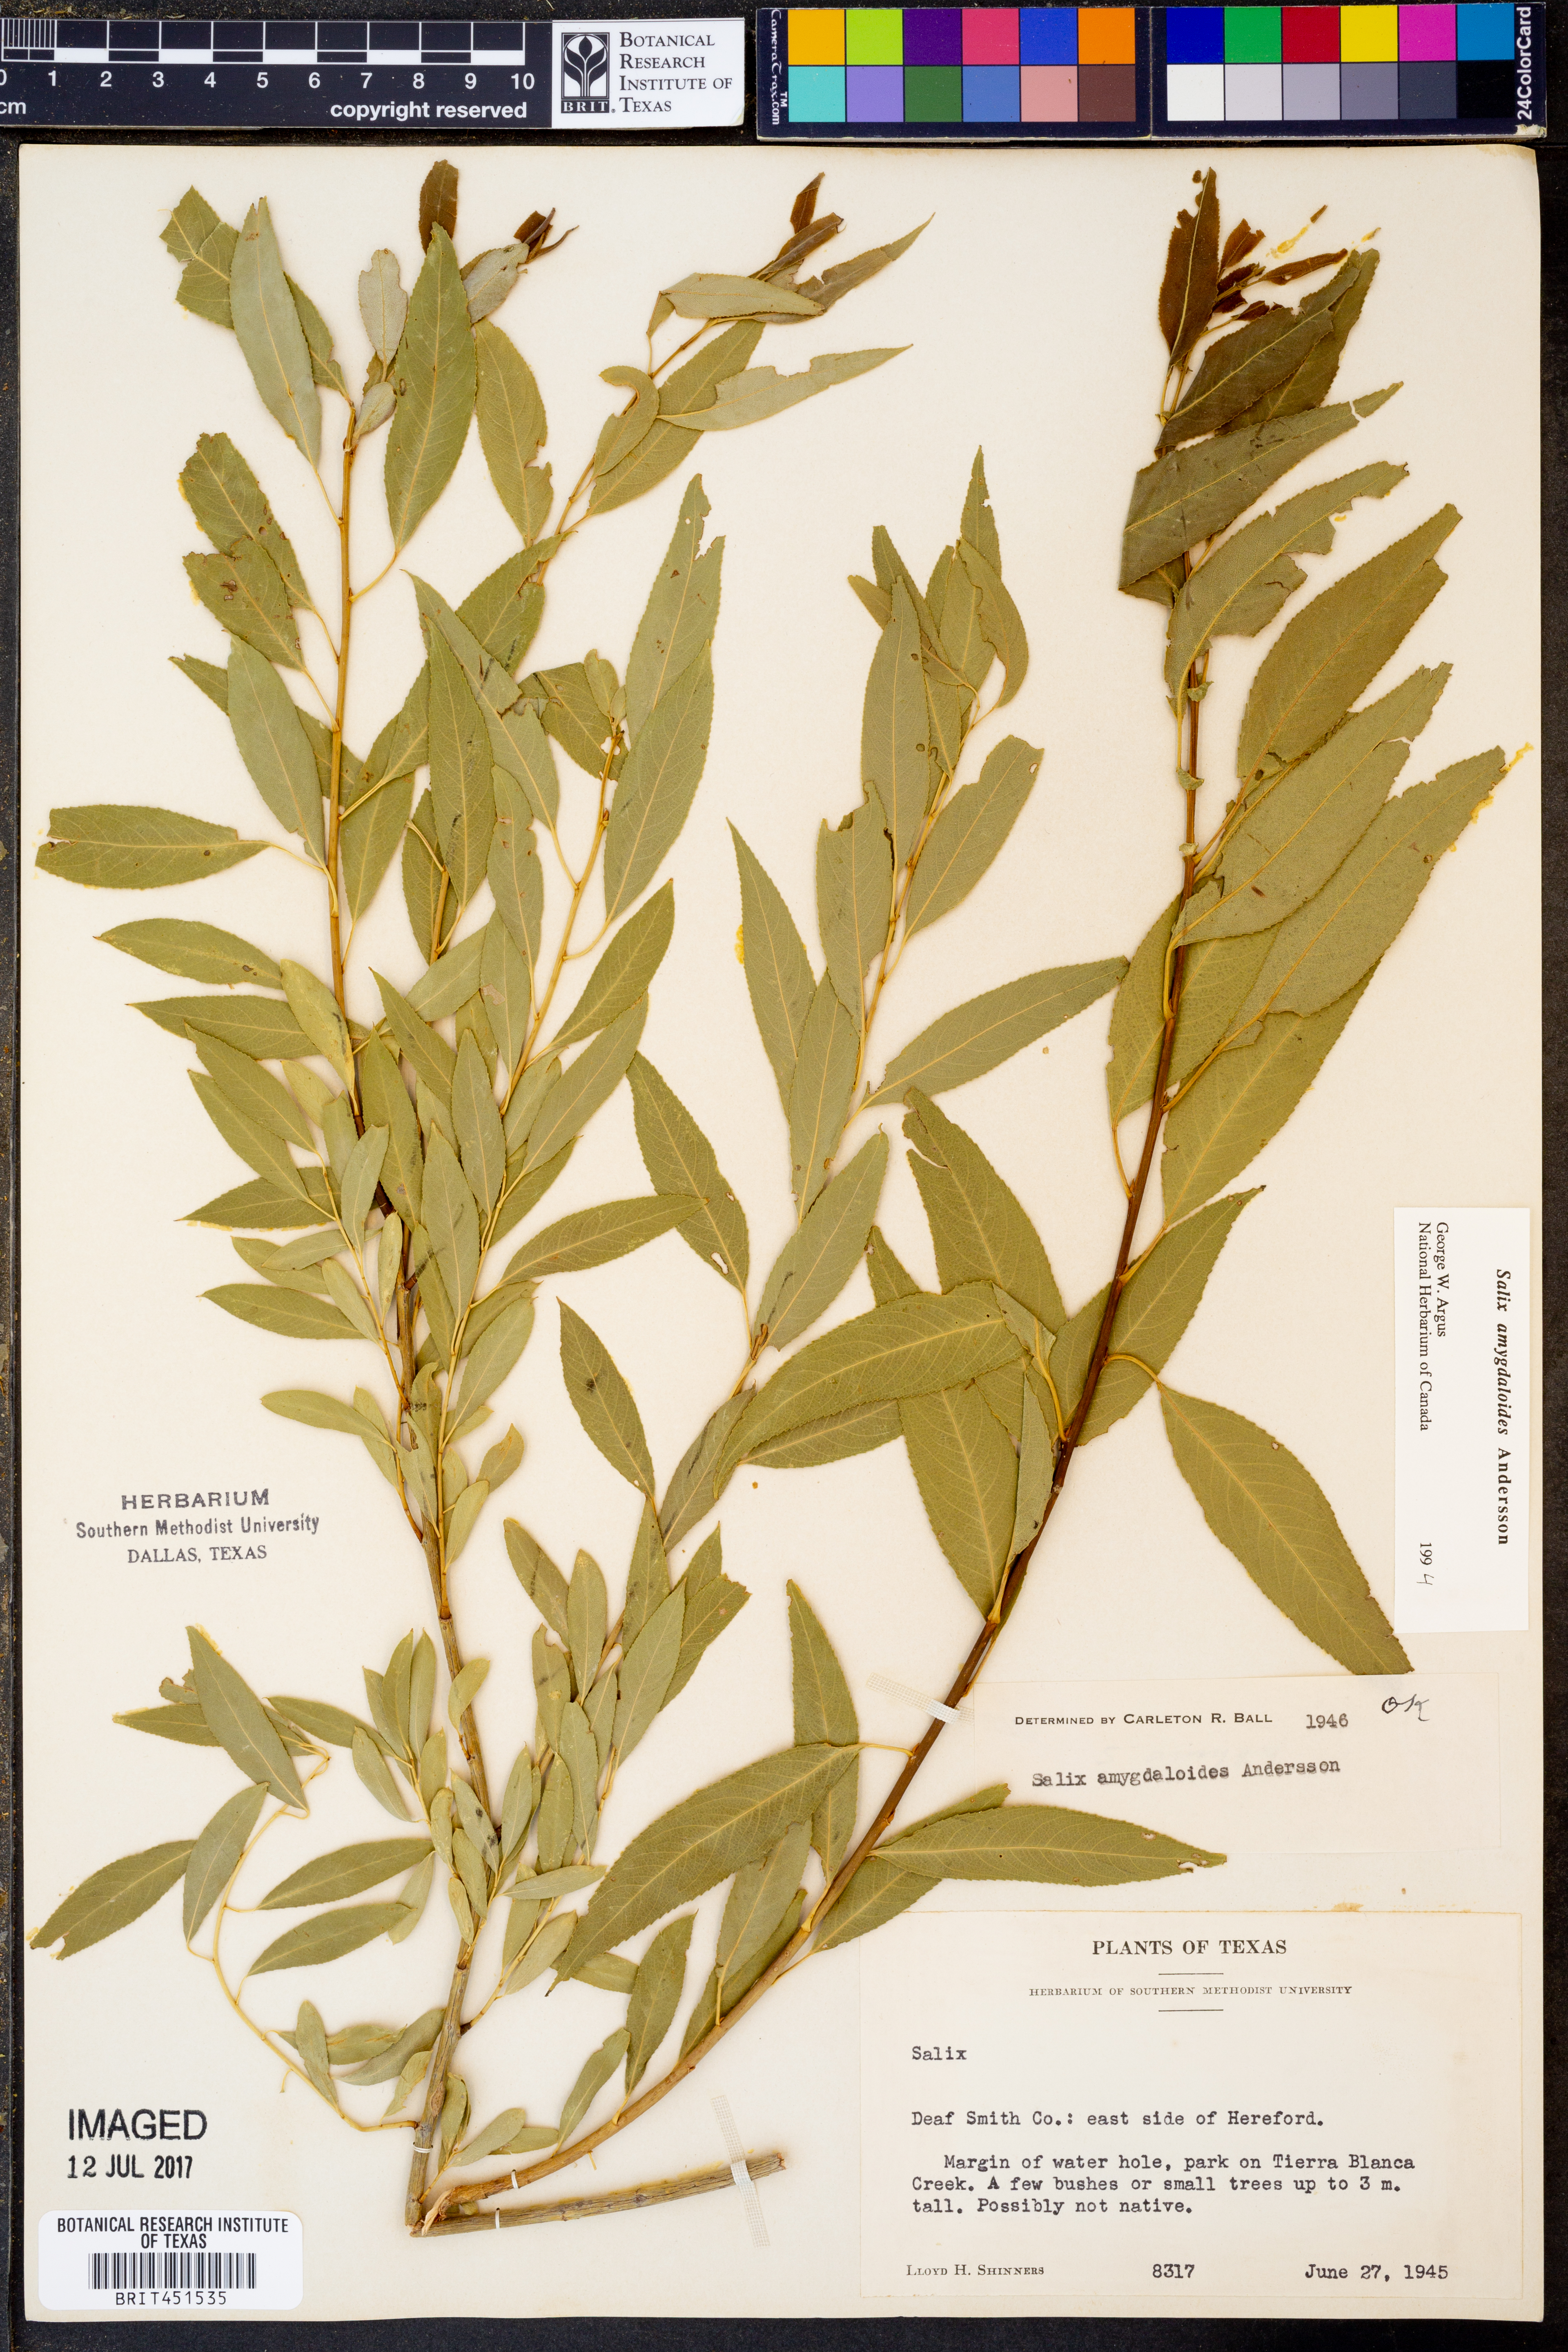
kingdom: Plantae
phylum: Tracheophyta
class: Magnoliopsida
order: Malpighiales
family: Salicaceae
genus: Salix
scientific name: Salix amygdaloides
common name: Peach leaf willow
